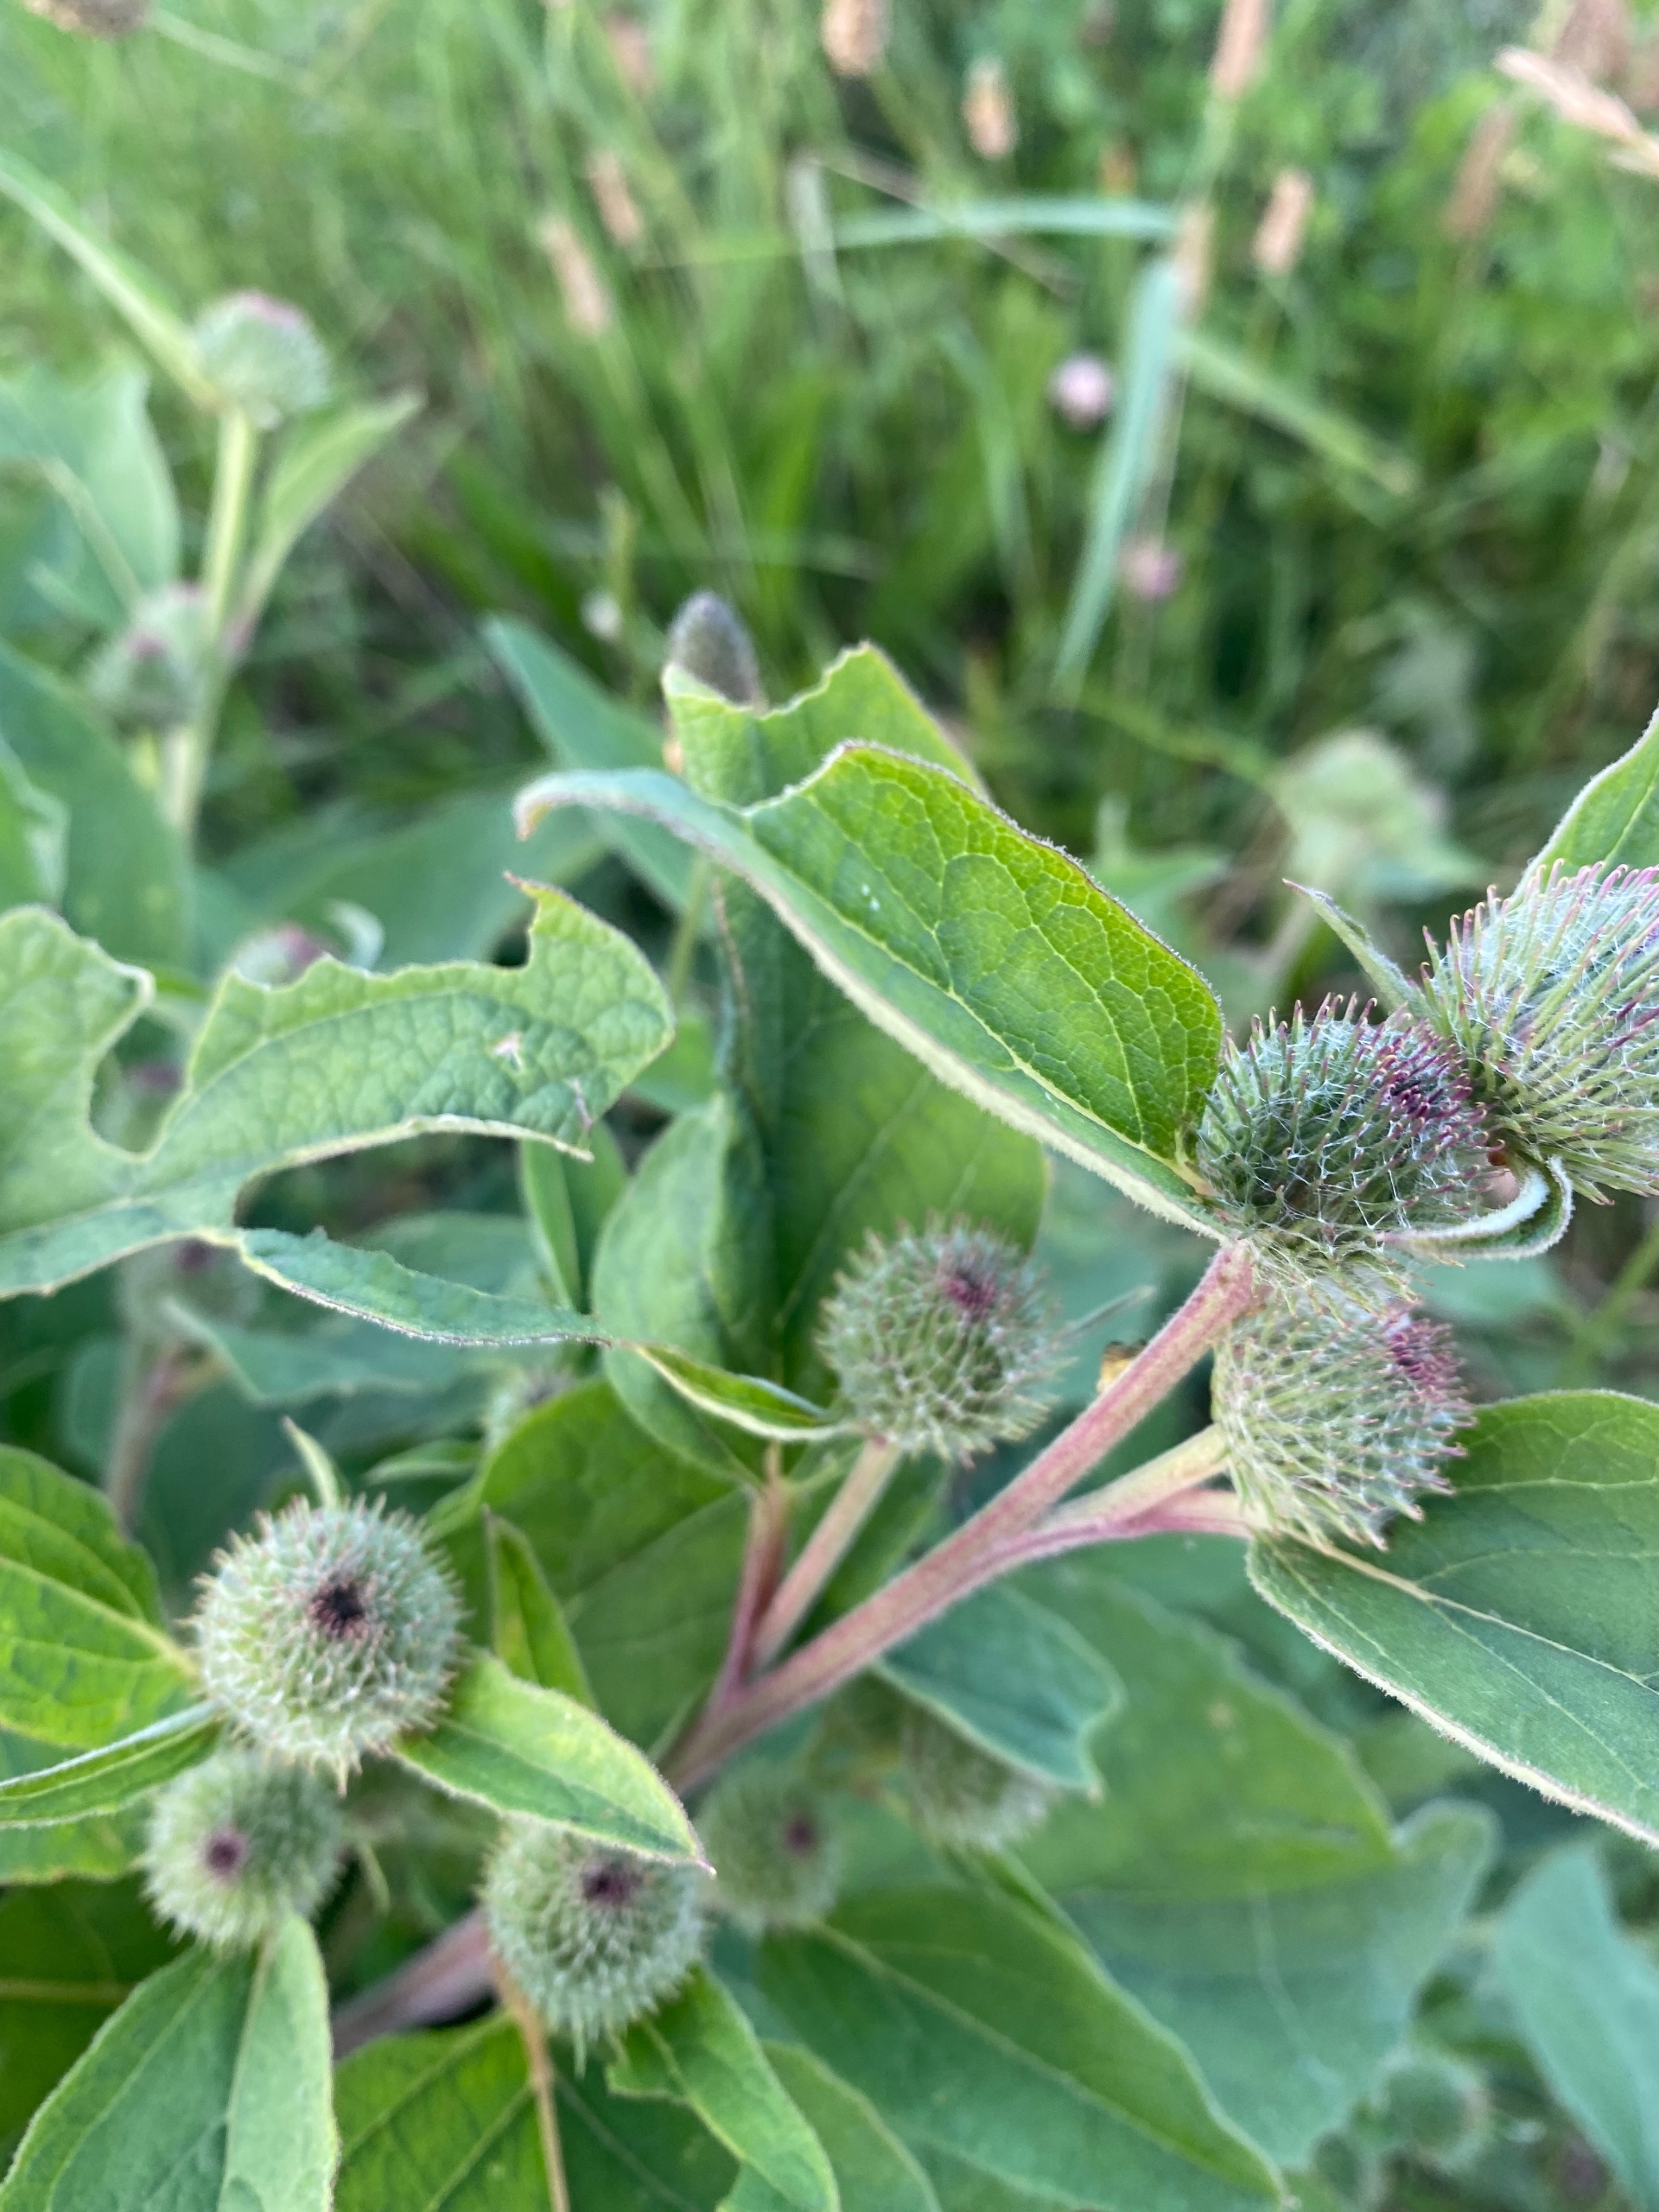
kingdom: Plantae
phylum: Tracheophyta
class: Magnoliopsida
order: Asterales
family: Asteraceae
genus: Arctium
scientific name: Arctium tomentosum
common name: Filtet burre
